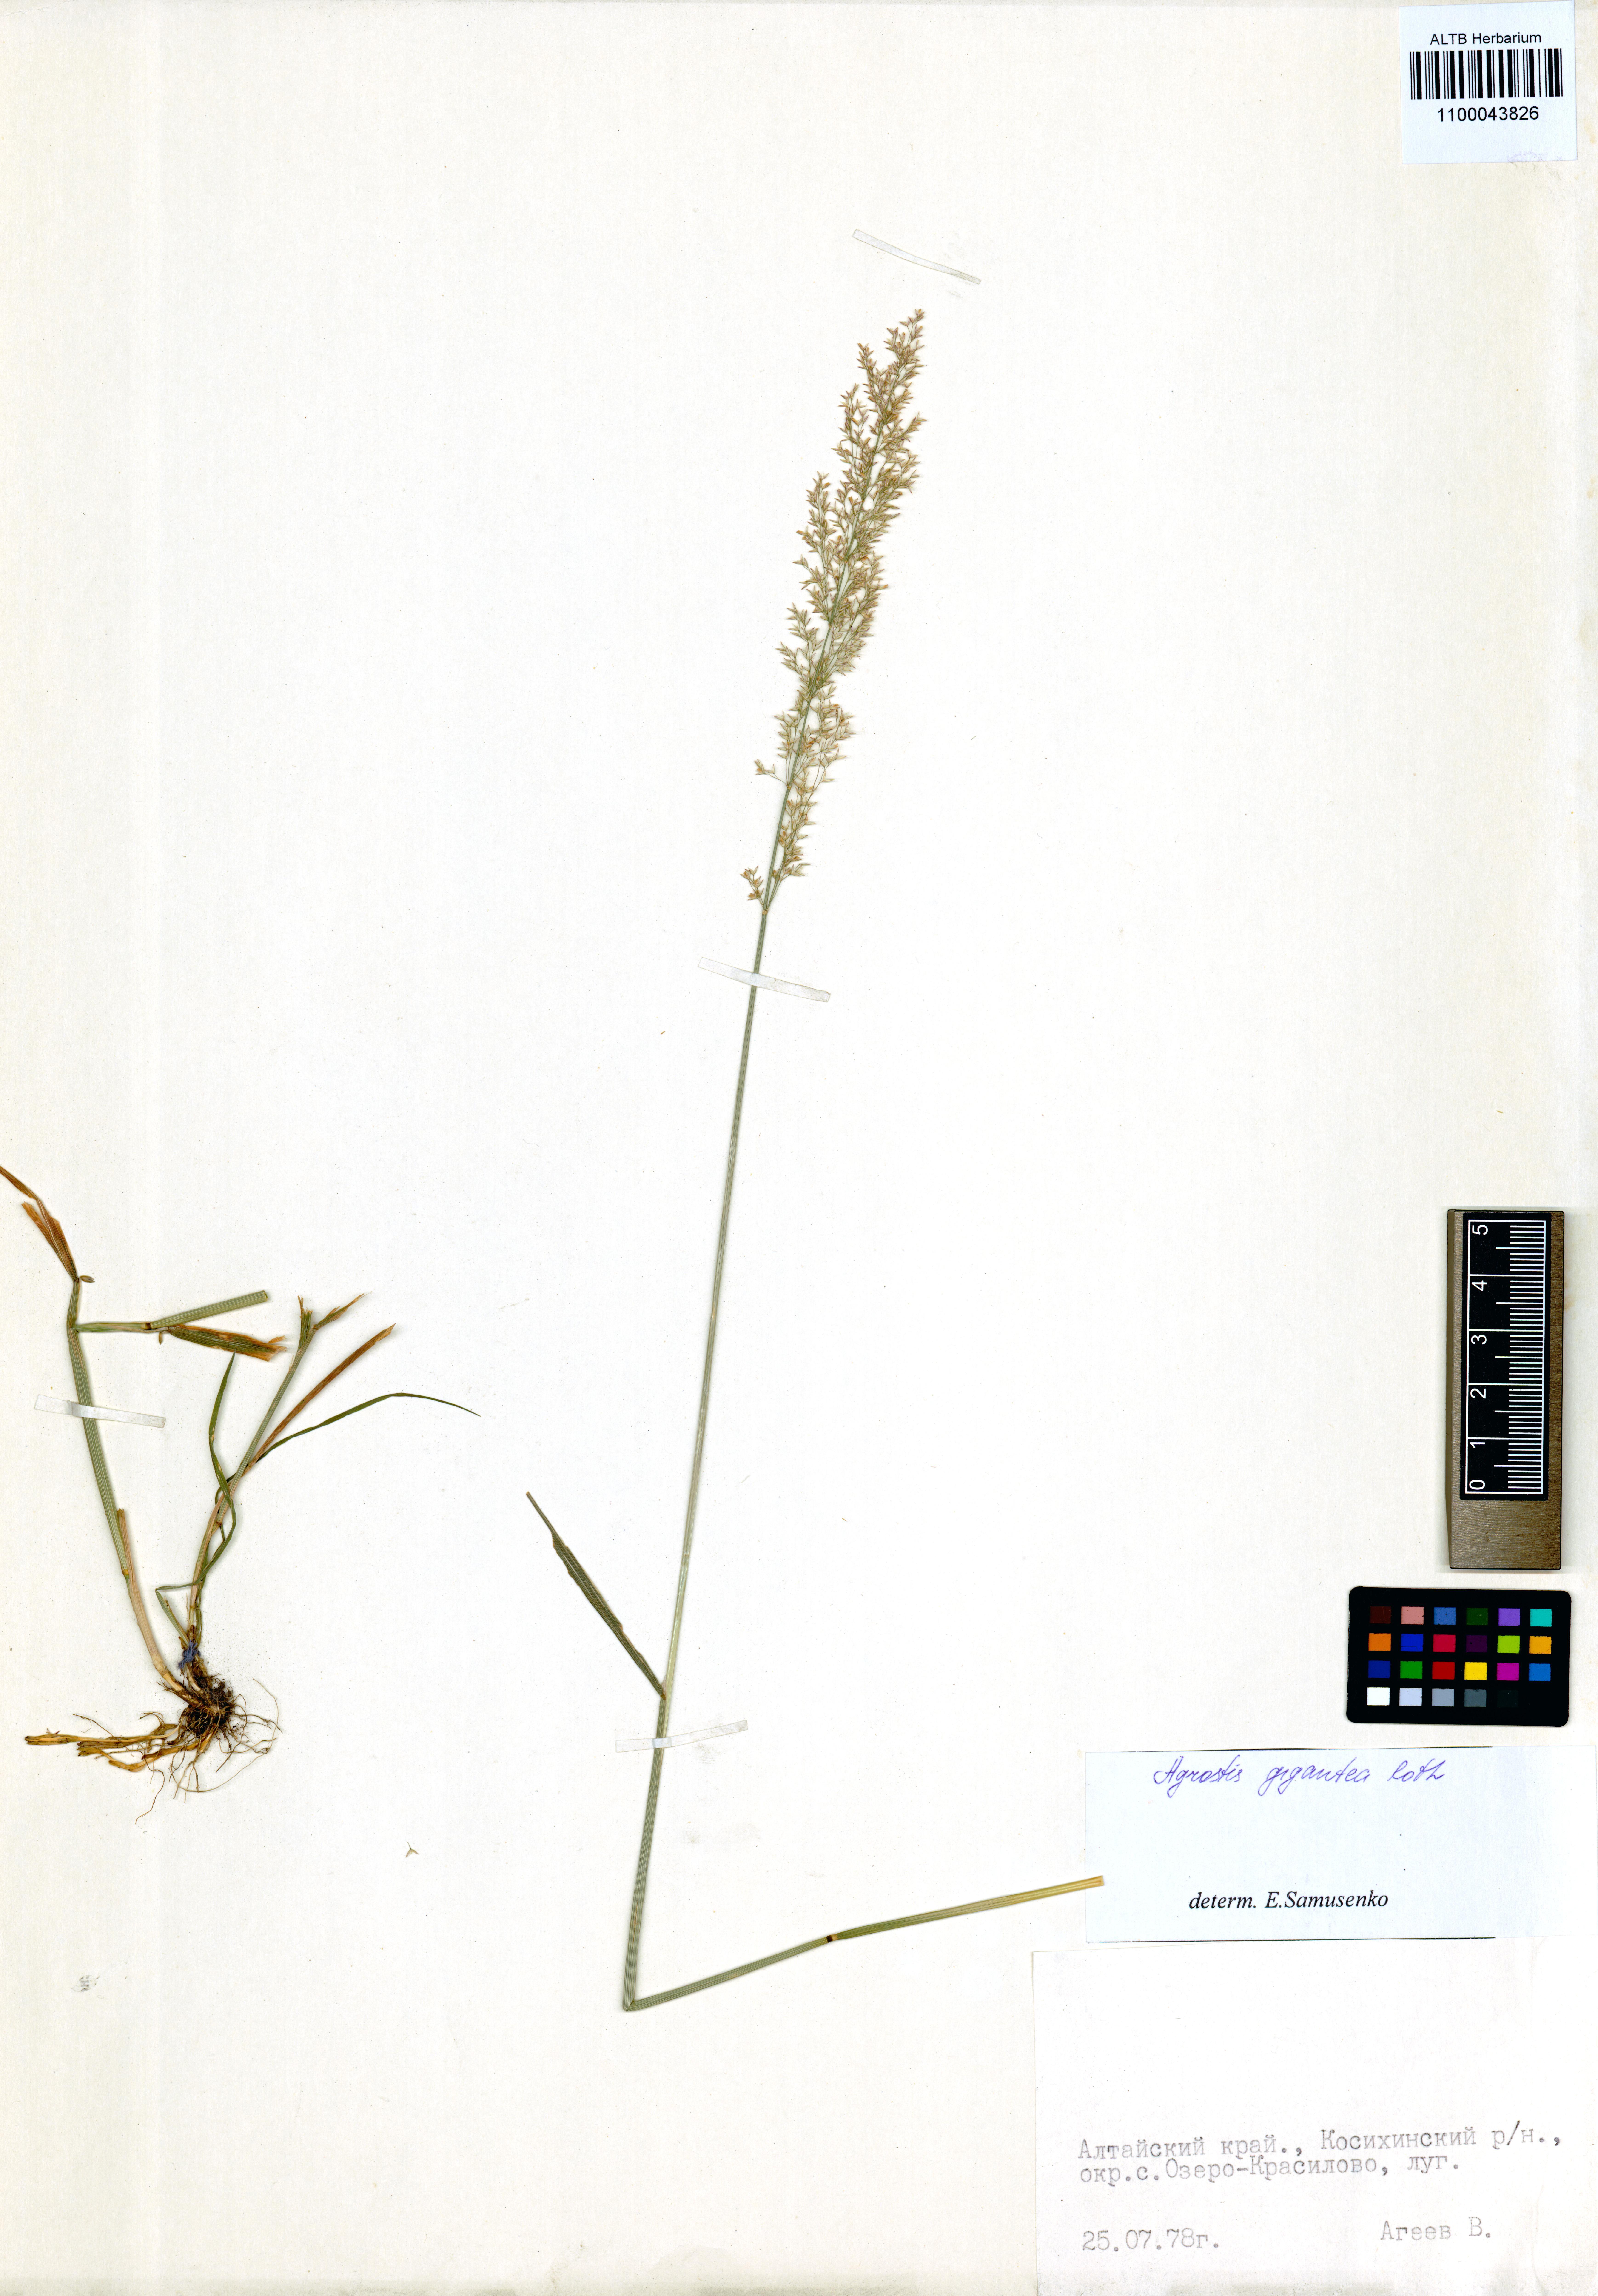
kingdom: Plantae
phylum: Tracheophyta
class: Liliopsida
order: Poales
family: Poaceae
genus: Agrostis
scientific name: Agrostis gigantea
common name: Black bent
